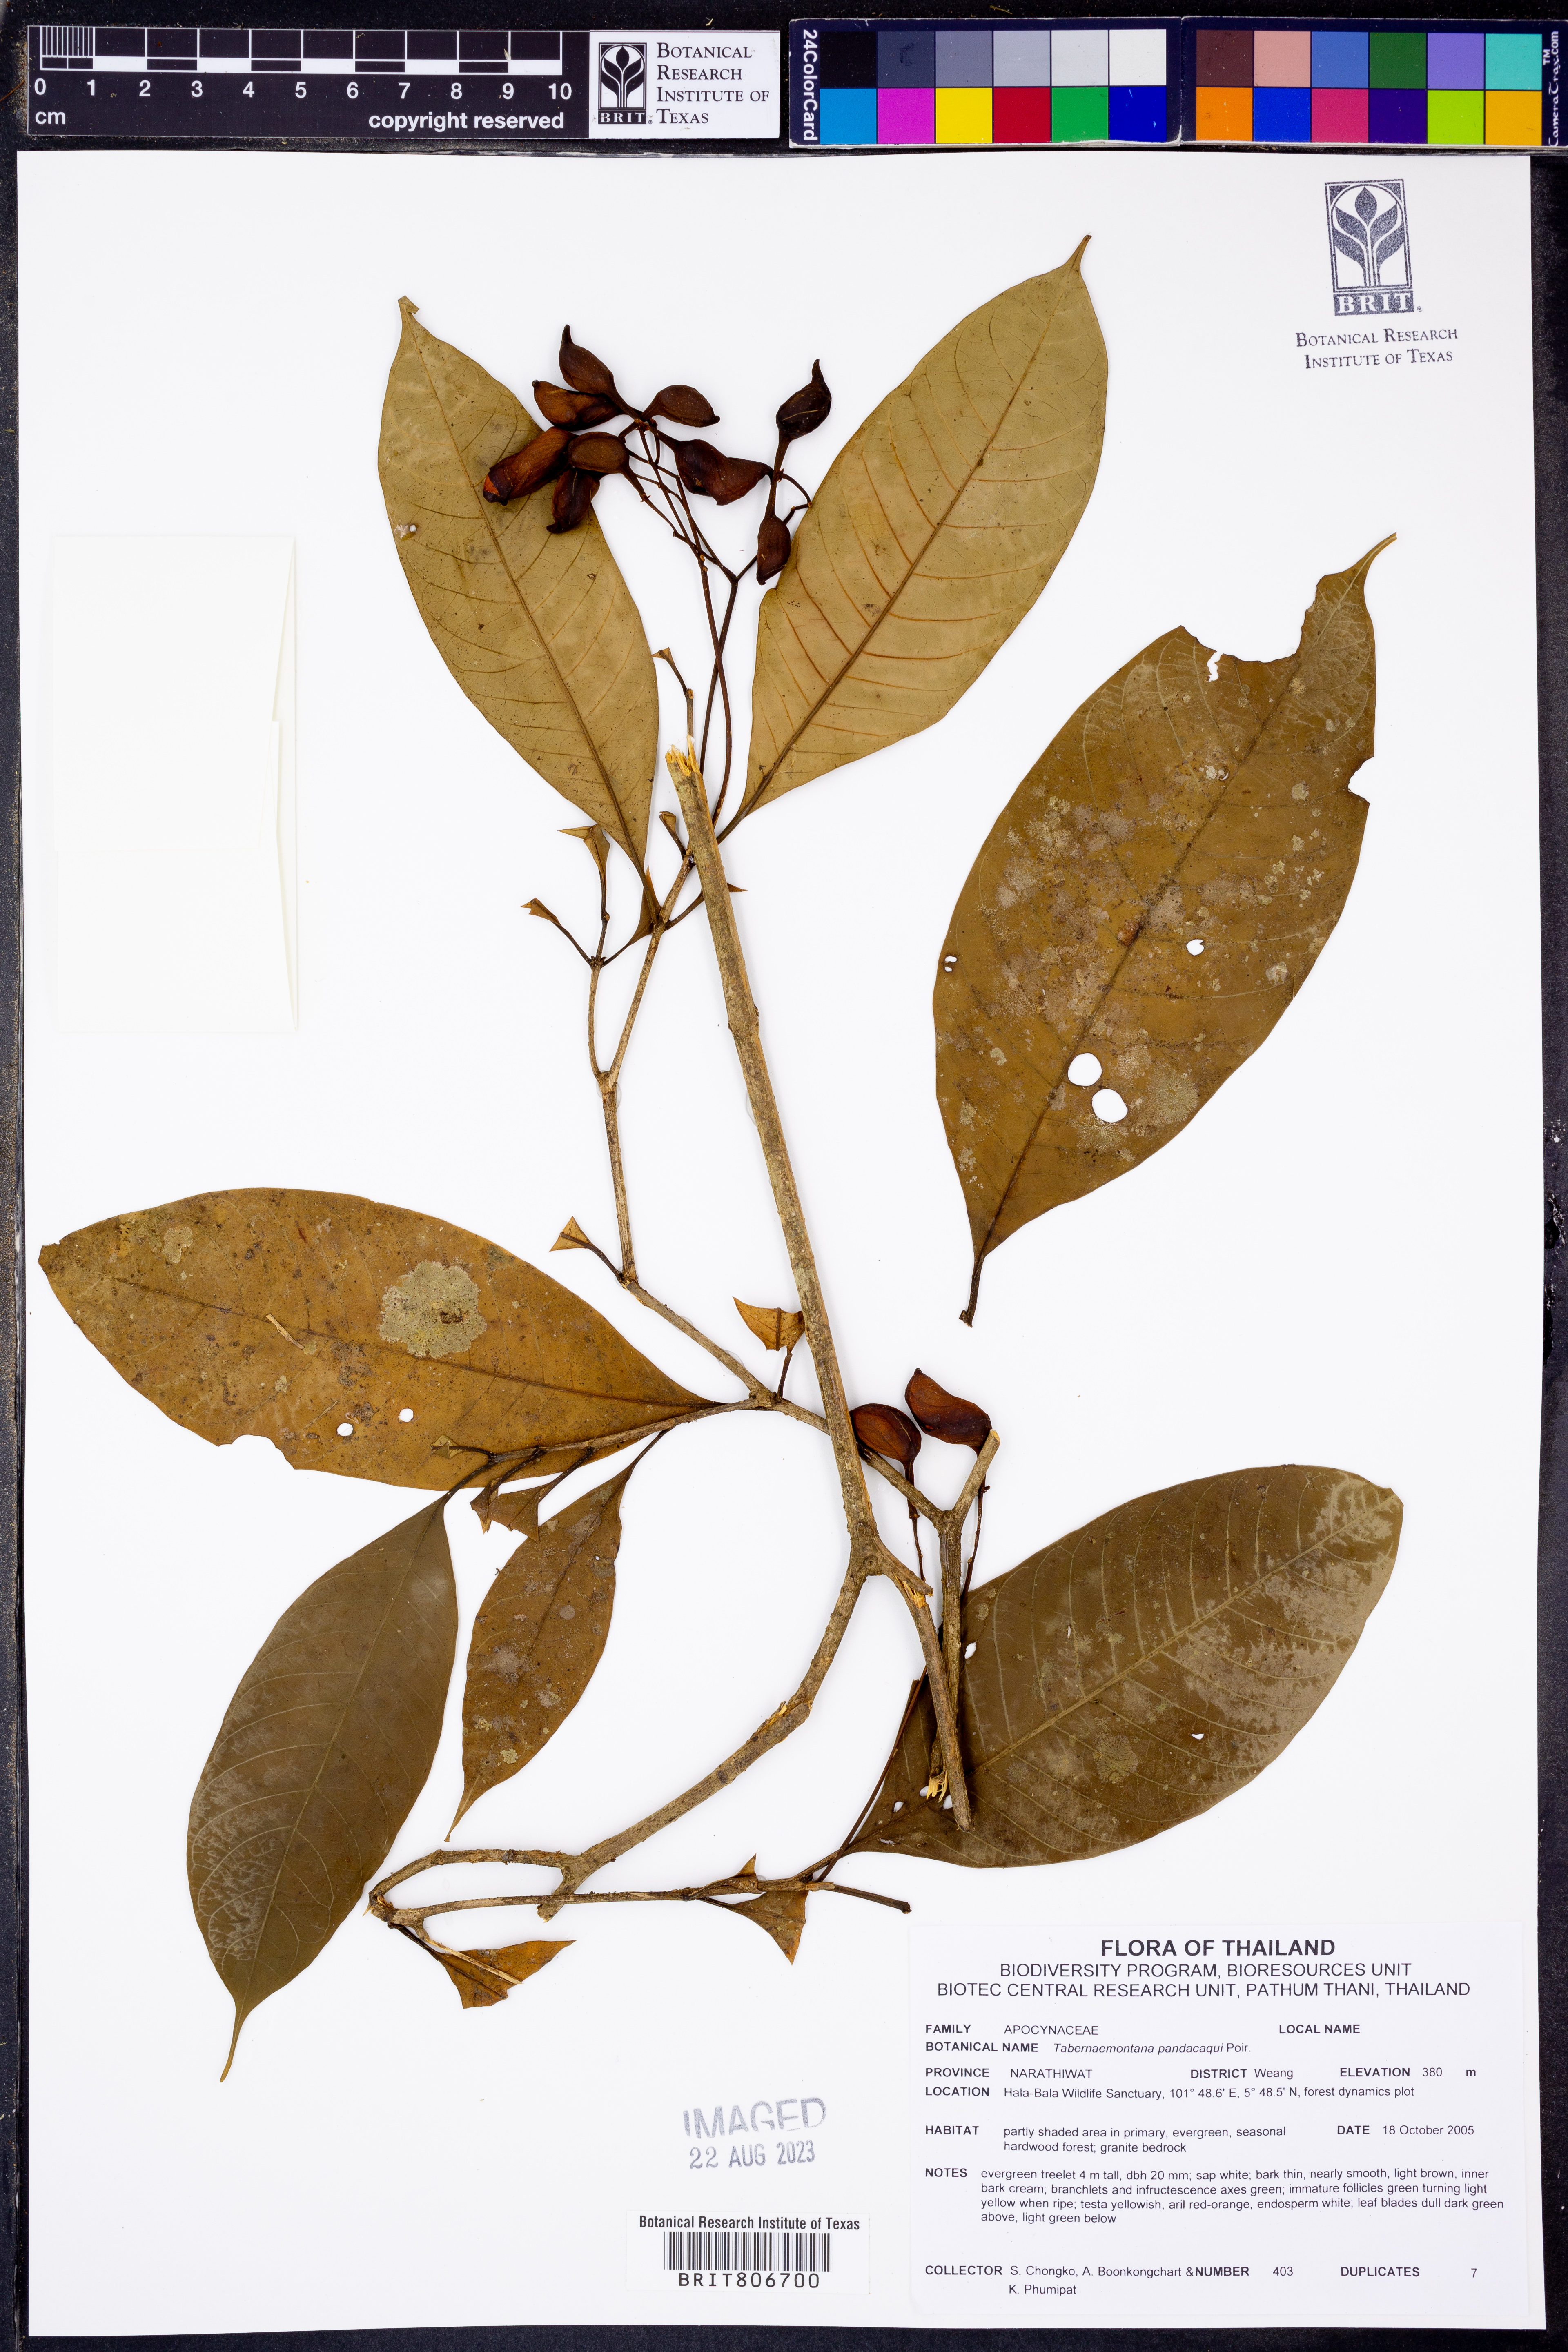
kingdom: Plantae
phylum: Tracheophyta
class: Magnoliopsida
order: Gentianales
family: Apocynaceae
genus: Tabernaemontana
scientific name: Tabernaemontana pandacaqui
